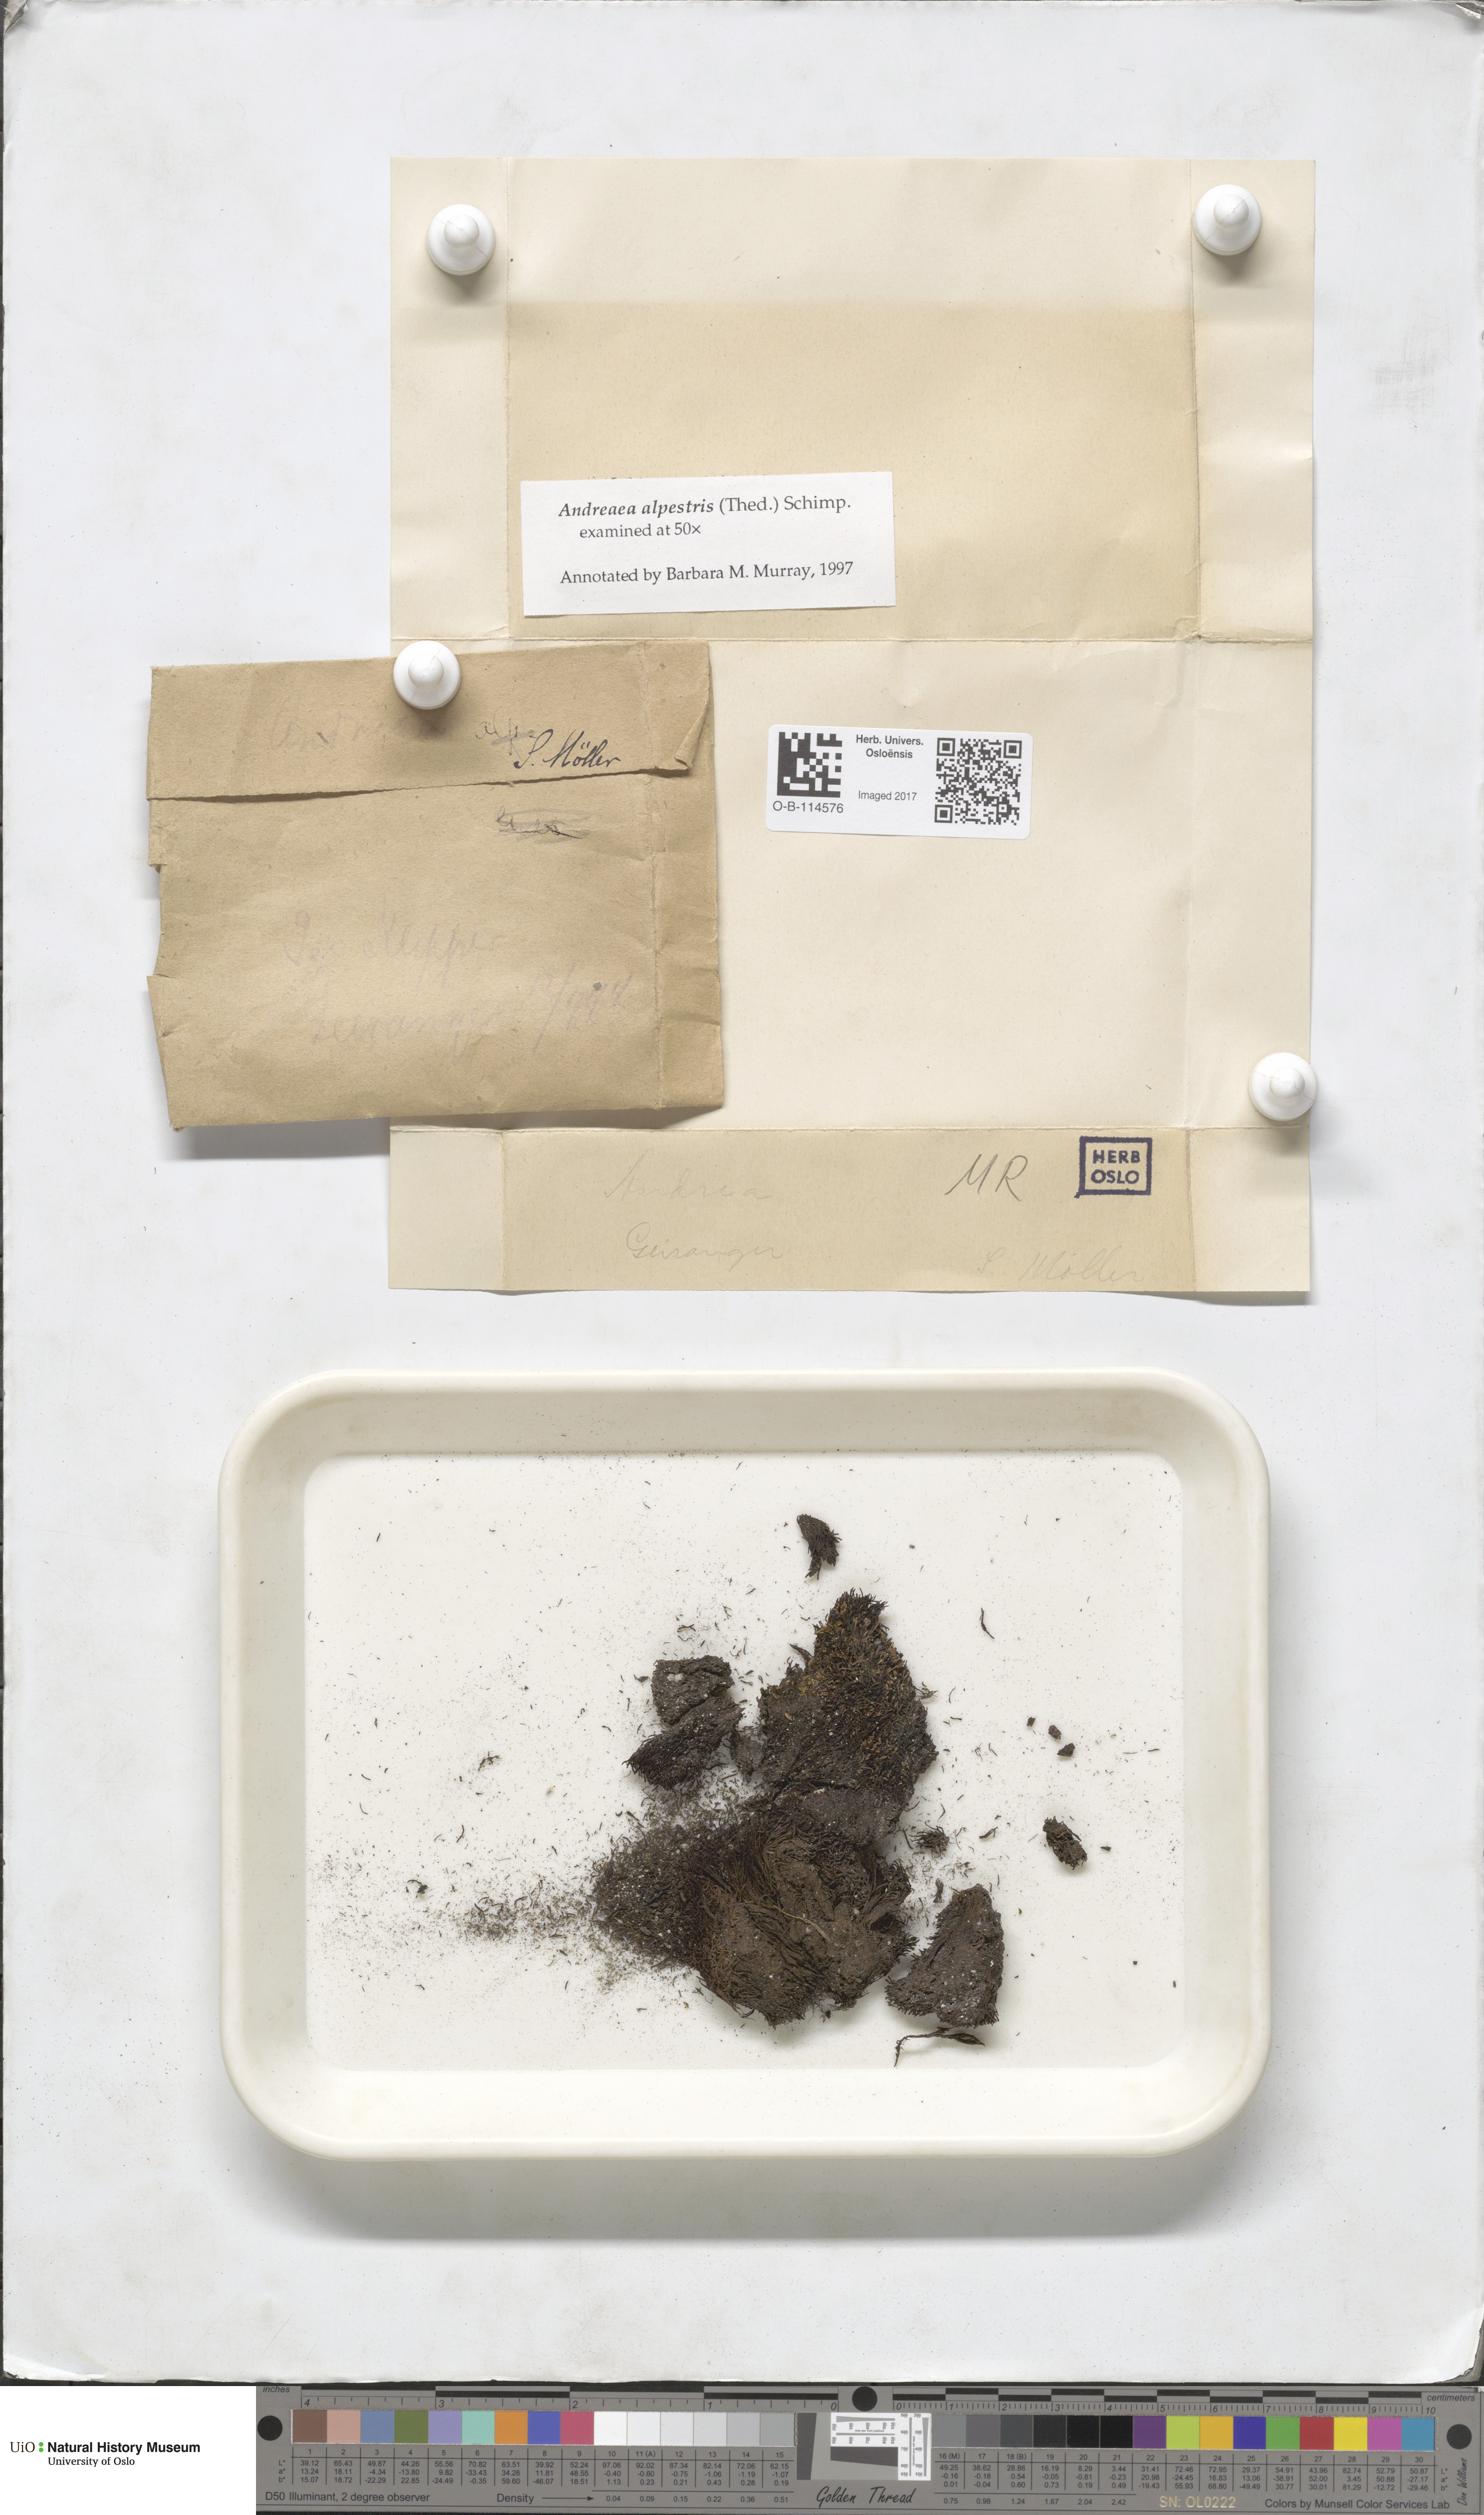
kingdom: Plantae
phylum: Bryophyta
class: Andreaeopsida
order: Andreaeales
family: Andreaeaceae
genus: Andreaea
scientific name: Andreaea alpestris
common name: Slender rock-moss
